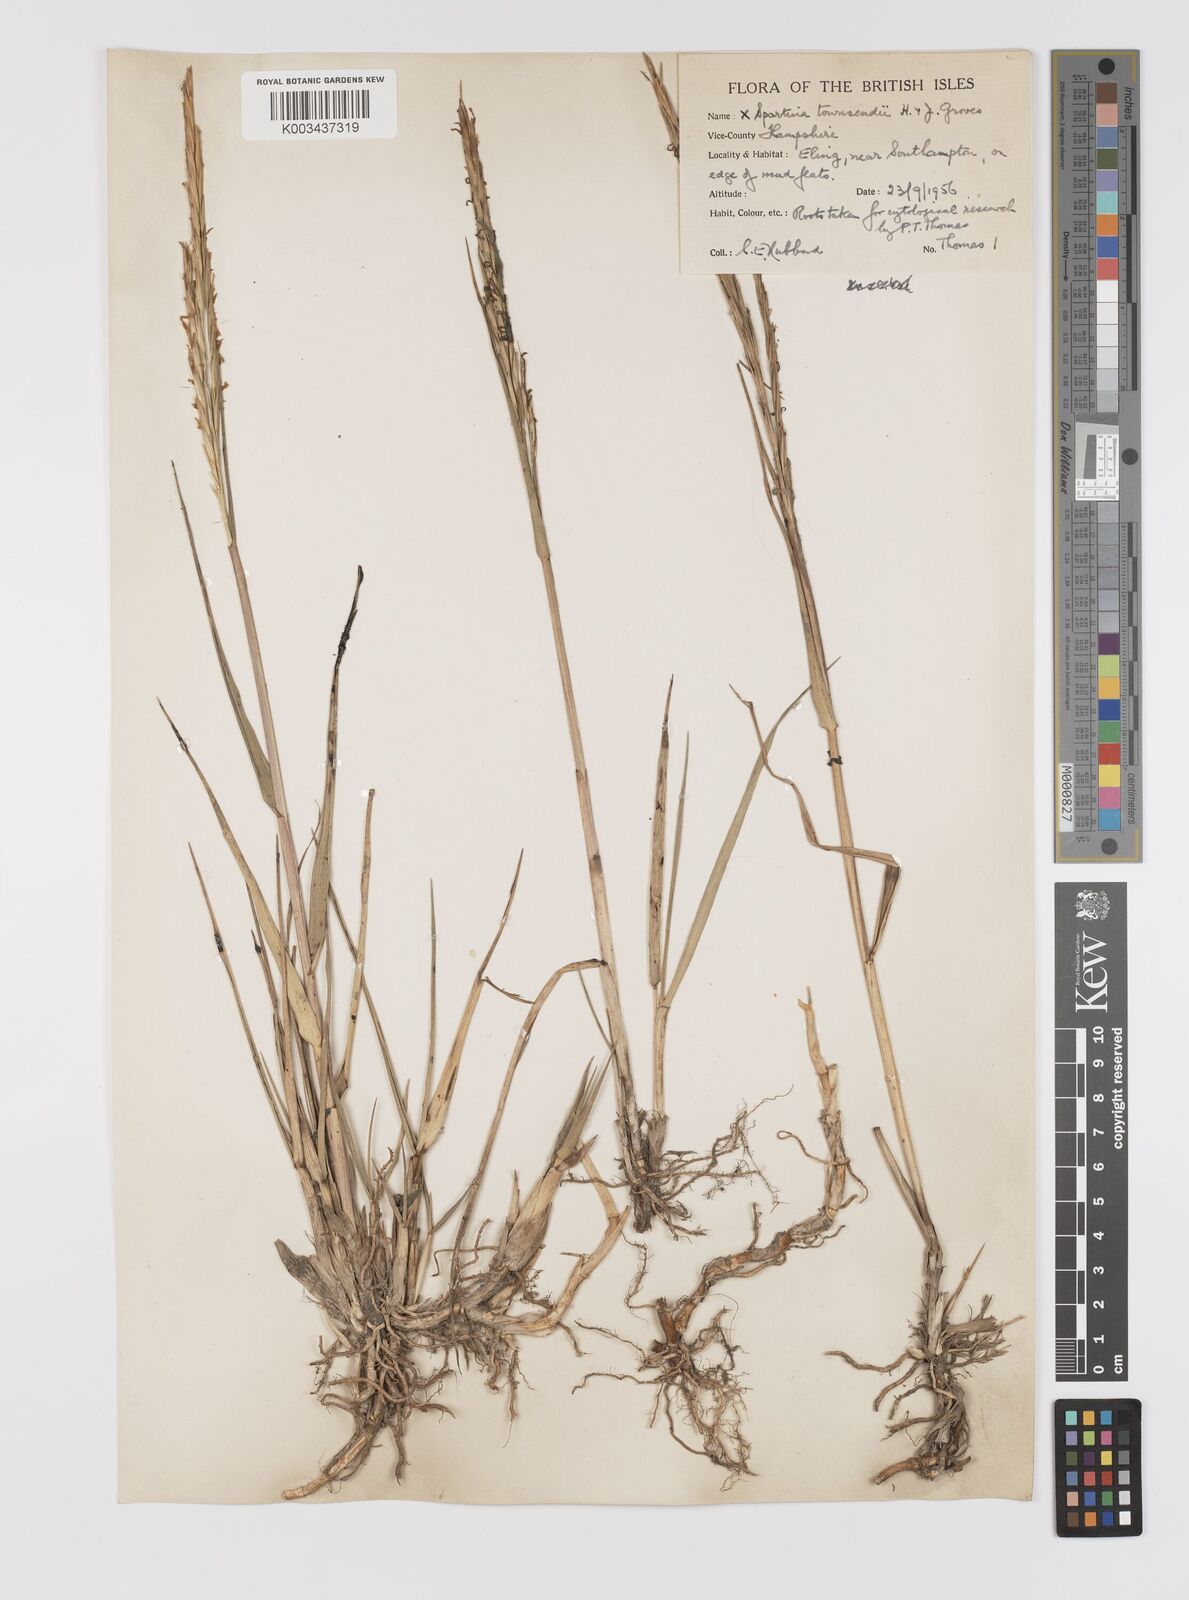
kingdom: Plantae
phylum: Tracheophyta
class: Liliopsida
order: Poales
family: Poaceae
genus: Sporobolus
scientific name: Sporobolus townsendii
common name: Townsend's cordgrass
